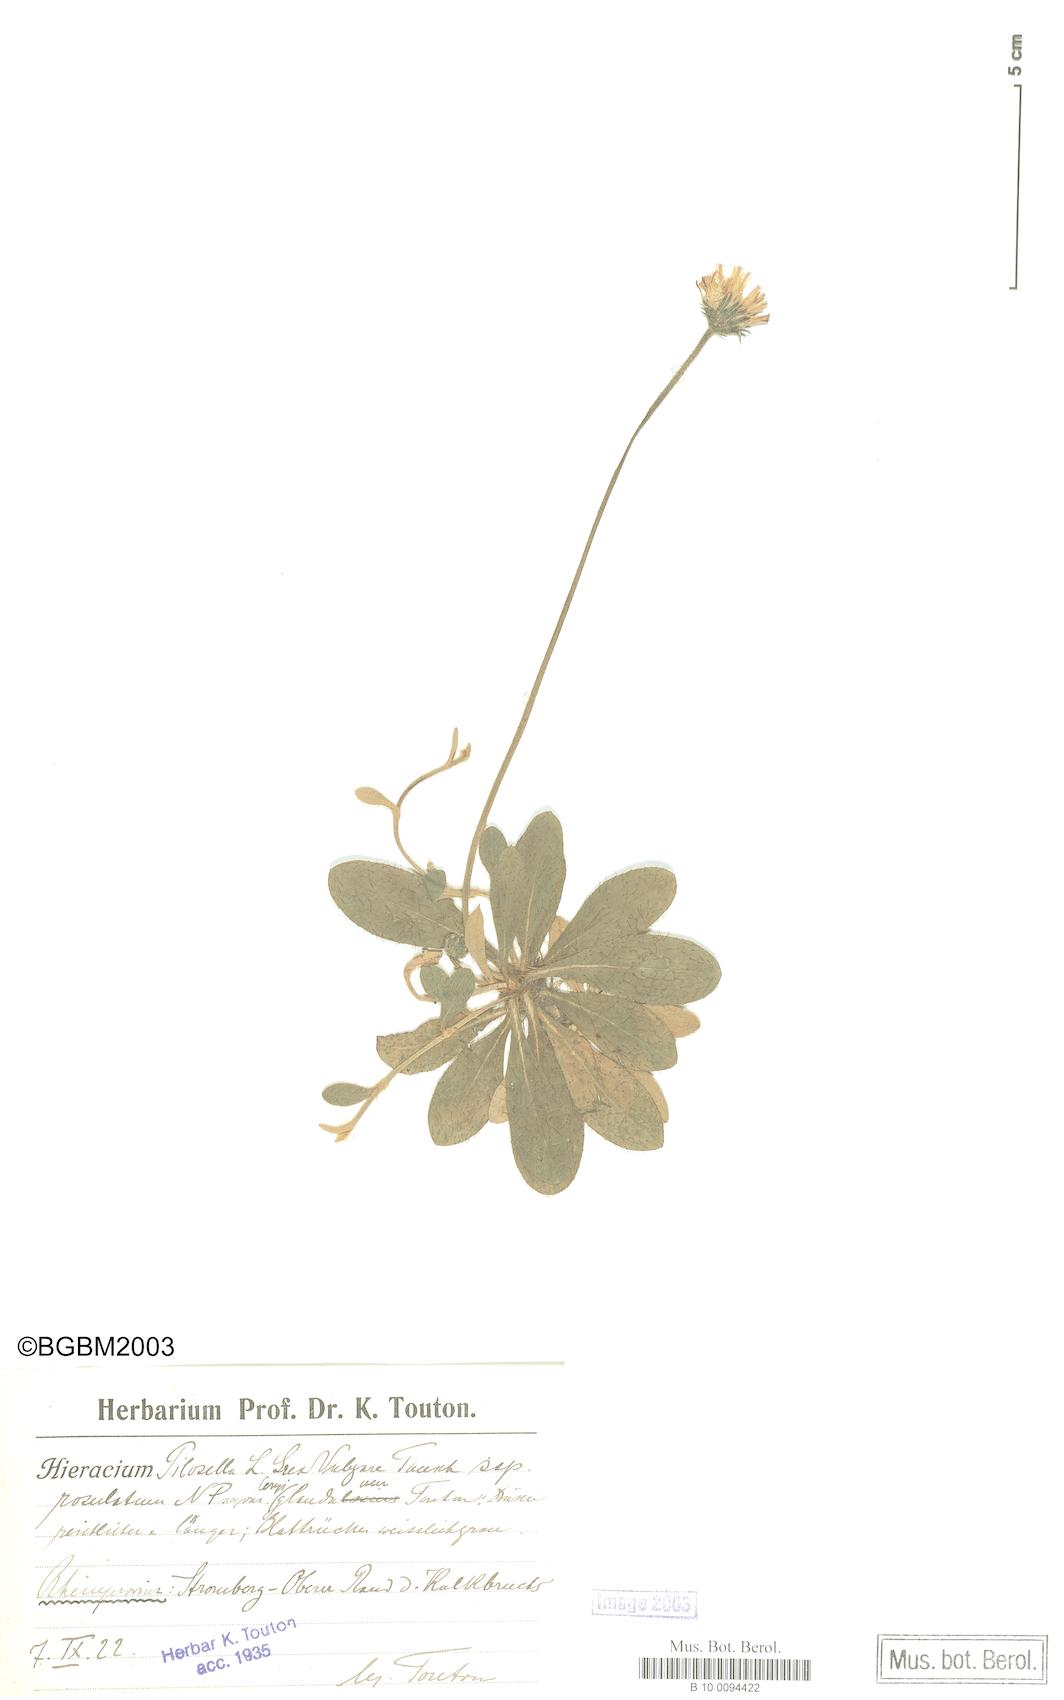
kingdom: Plantae
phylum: Tracheophyta
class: Magnoliopsida
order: Asterales
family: Asteraceae
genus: Pilosella
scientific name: Pilosella officinarum
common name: Mouse-ear hawkweed
